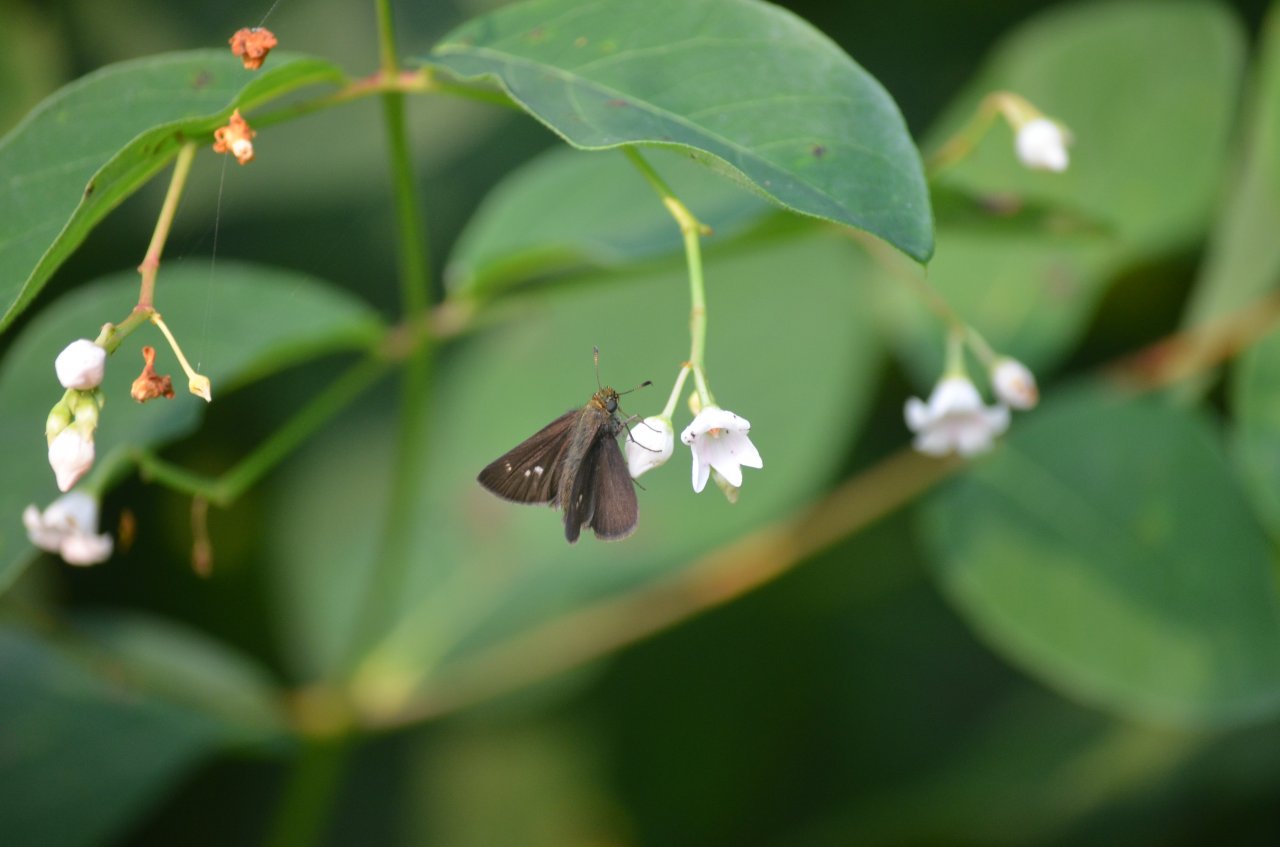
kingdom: Animalia
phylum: Arthropoda
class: Insecta
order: Lepidoptera
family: Hesperiidae
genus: Euphyes
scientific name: Euphyes vestris
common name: Dun Skipper
